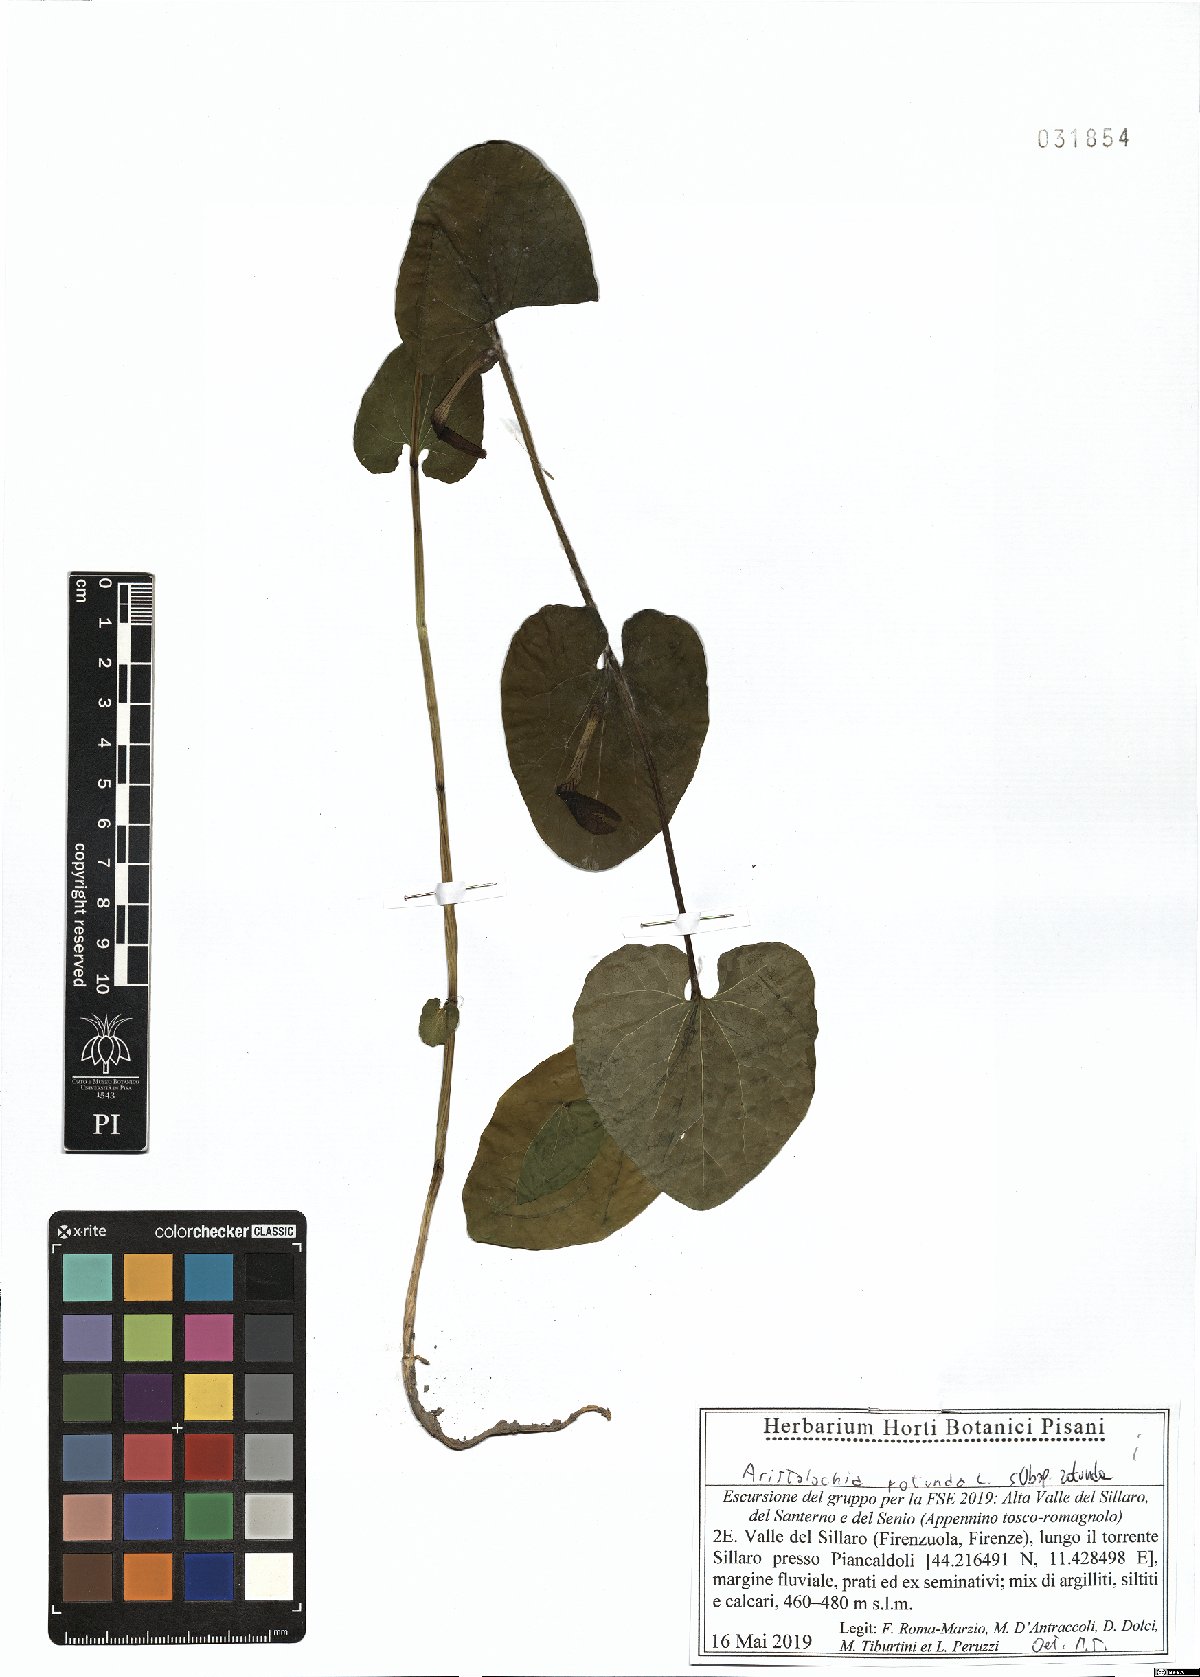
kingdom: Plantae
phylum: Tracheophyta
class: Magnoliopsida
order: Piperales
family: Aristolochiaceae
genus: Aristolochia
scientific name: Aristolochia rotunda
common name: Smearwort
